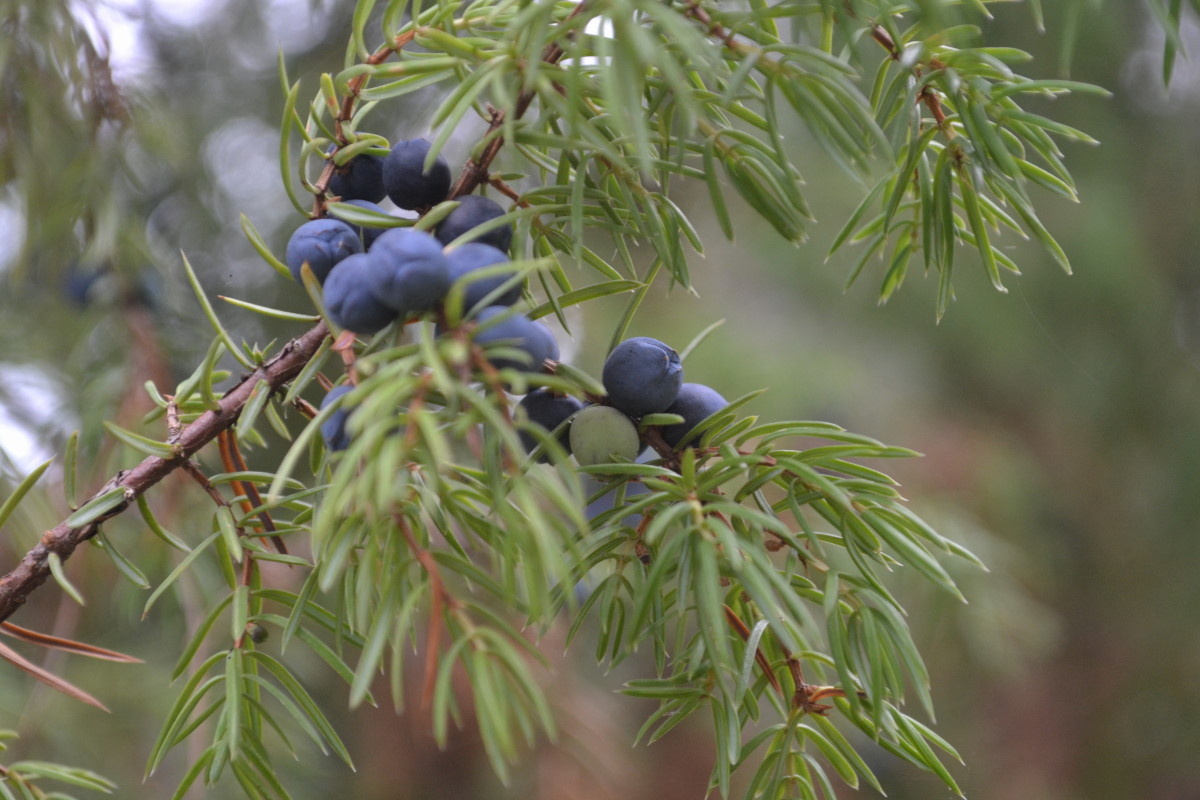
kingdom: Plantae
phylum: Tracheophyta
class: Pinopsida
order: Pinales
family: Cupressaceae
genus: Juniperus
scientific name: Juniperus communis
